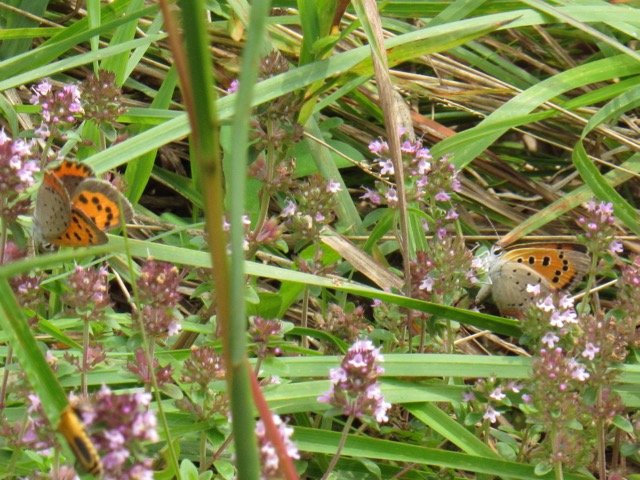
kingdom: Animalia
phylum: Arthropoda
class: Insecta
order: Lepidoptera
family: Lycaenidae
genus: Lycaena
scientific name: Lycaena phlaeas
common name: American Copper
